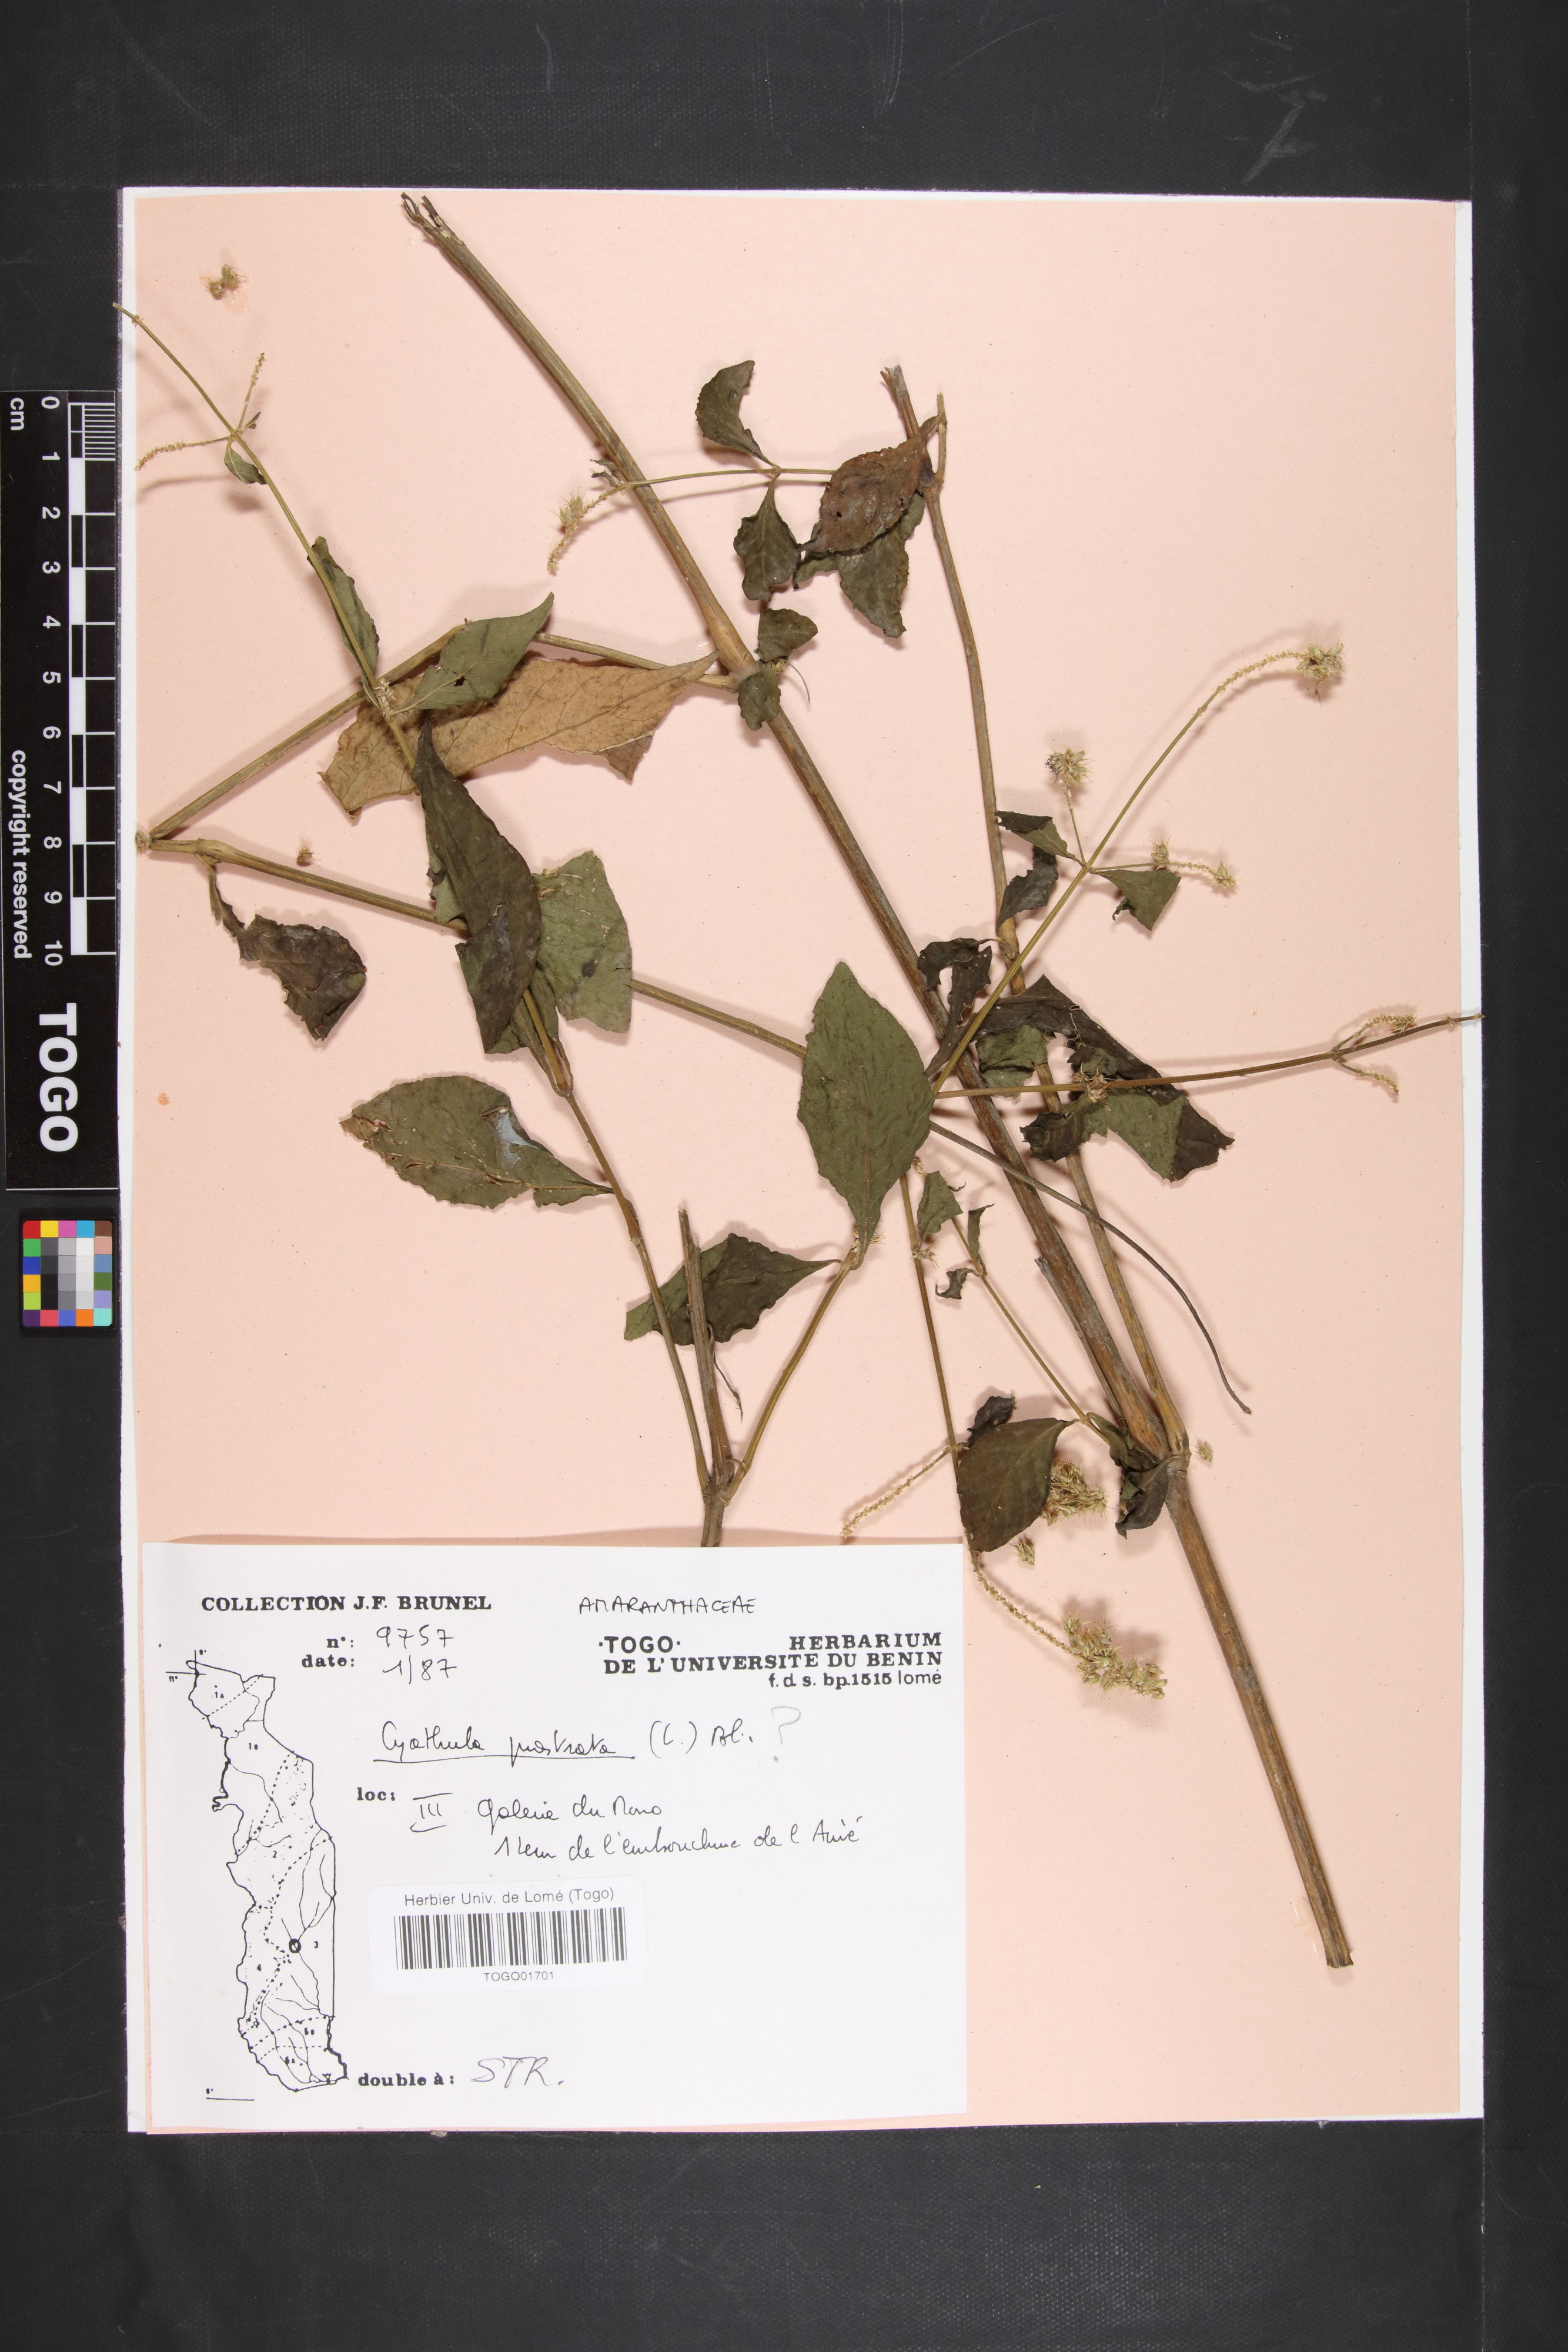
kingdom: Plantae
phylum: Tracheophyta
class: Magnoliopsida
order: Caryophyllales
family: Amaranthaceae
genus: Cyathula
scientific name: Cyathula prostrata
